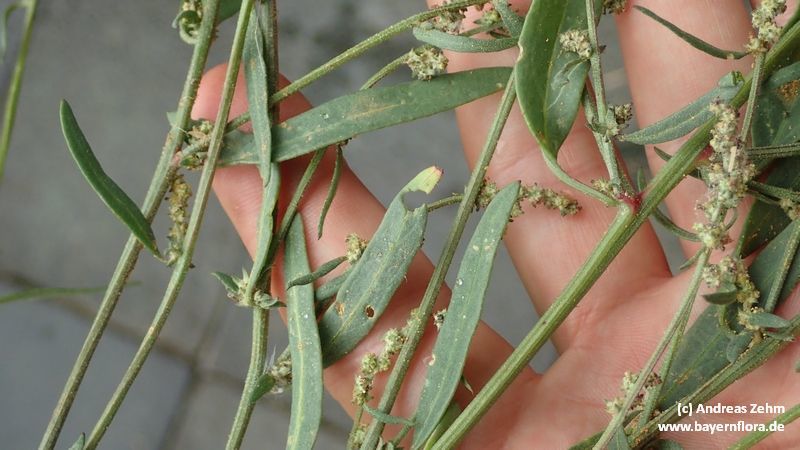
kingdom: Plantae
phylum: Tracheophyta
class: Magnoliopsida
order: Caryophyllales
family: Amaranthaceae
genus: Atriplex
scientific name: Atriplex patula
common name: Common orache
